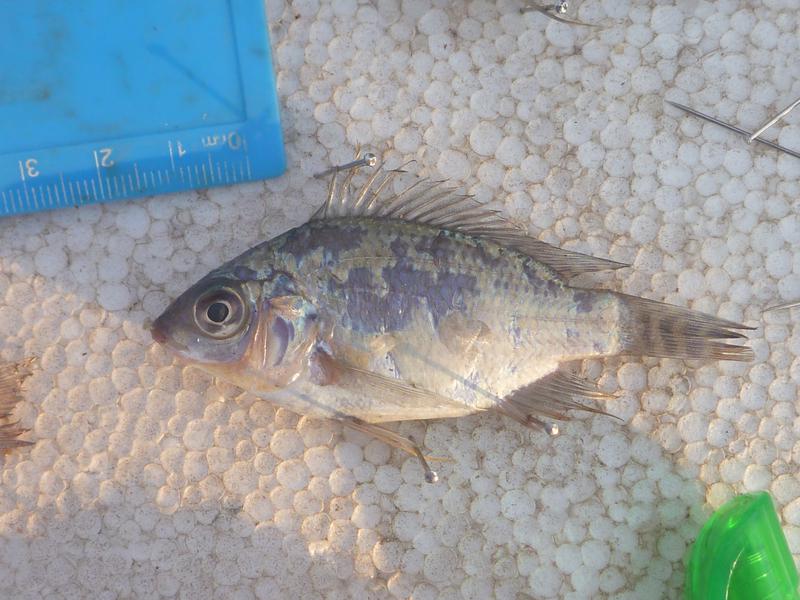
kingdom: Animalia
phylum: Chordata
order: Perciformes
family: Cichlidae
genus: Oreochromis
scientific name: Oreochromis niloticus
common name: Nile tilapia
